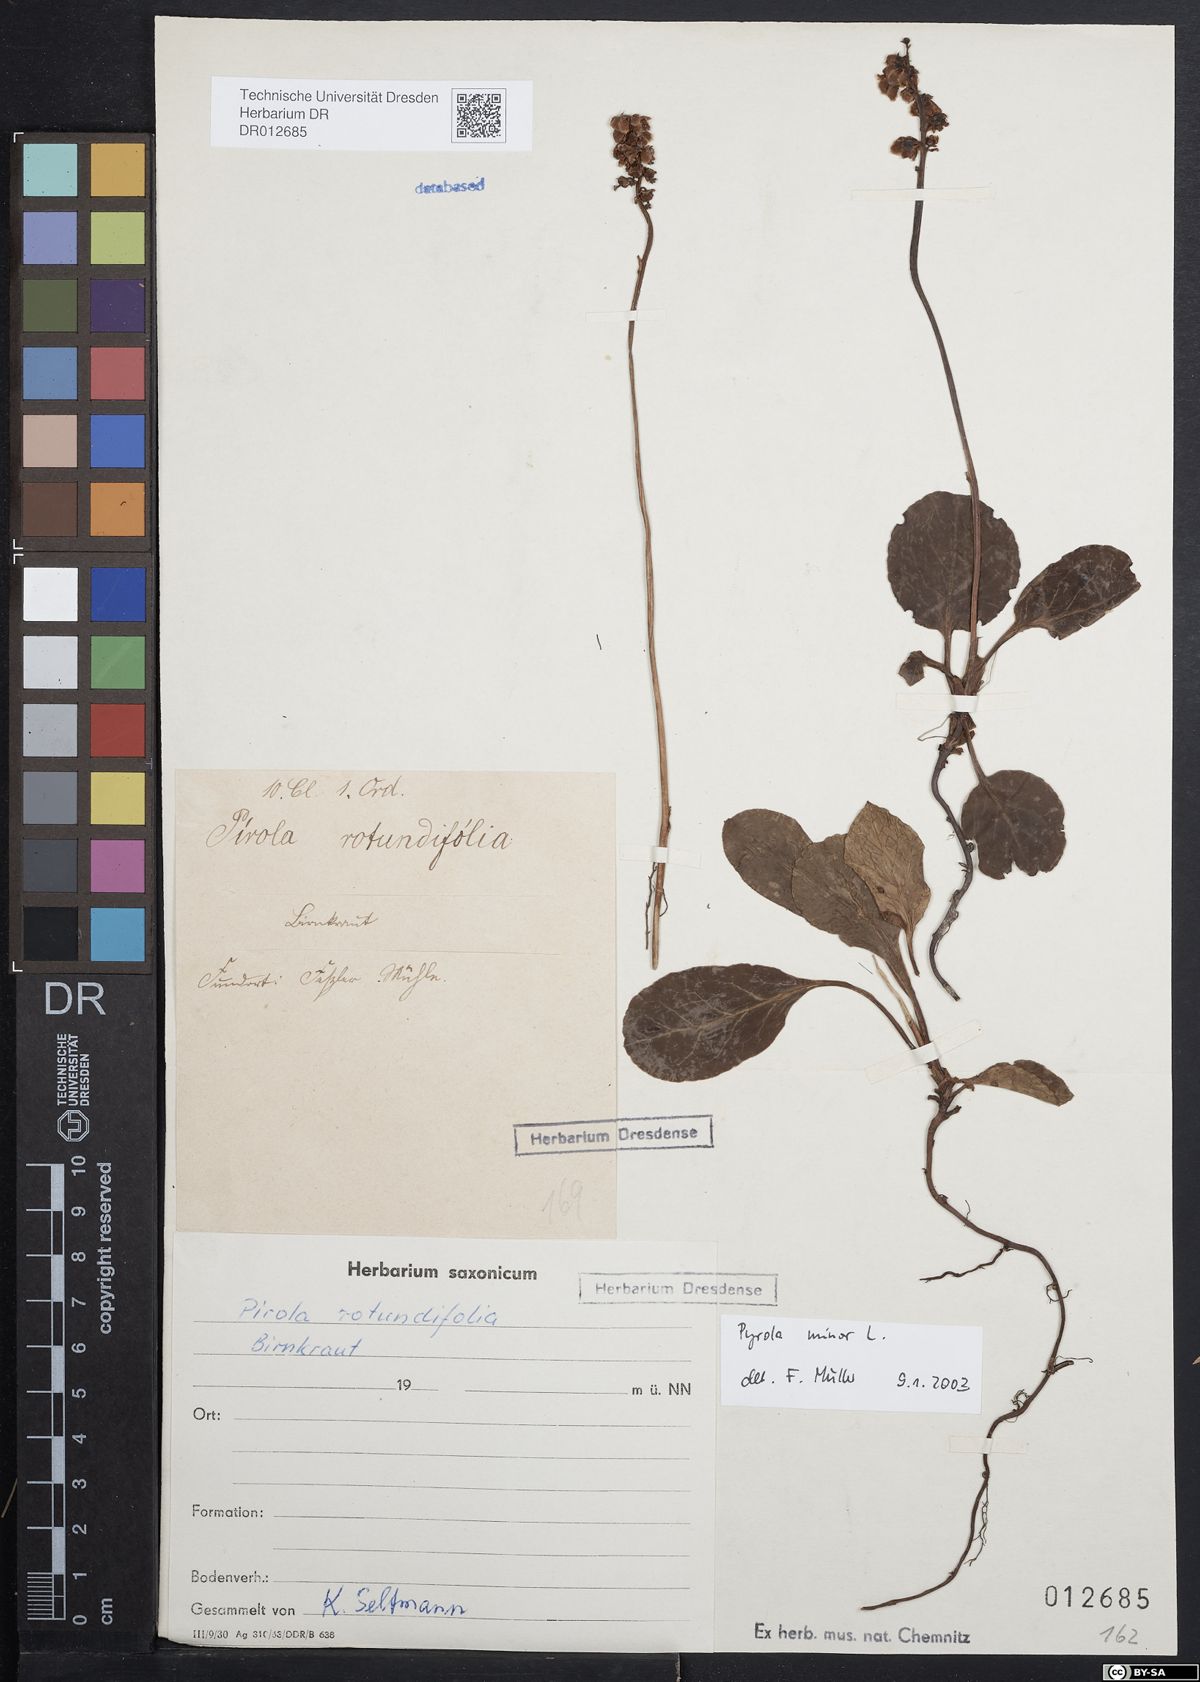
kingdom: Plantae
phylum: Tracheophyta
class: Magnoliopsida
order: Ericales
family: Ericaceae
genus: Pyrola
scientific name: Pyrola minor
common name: Common wintergreen
